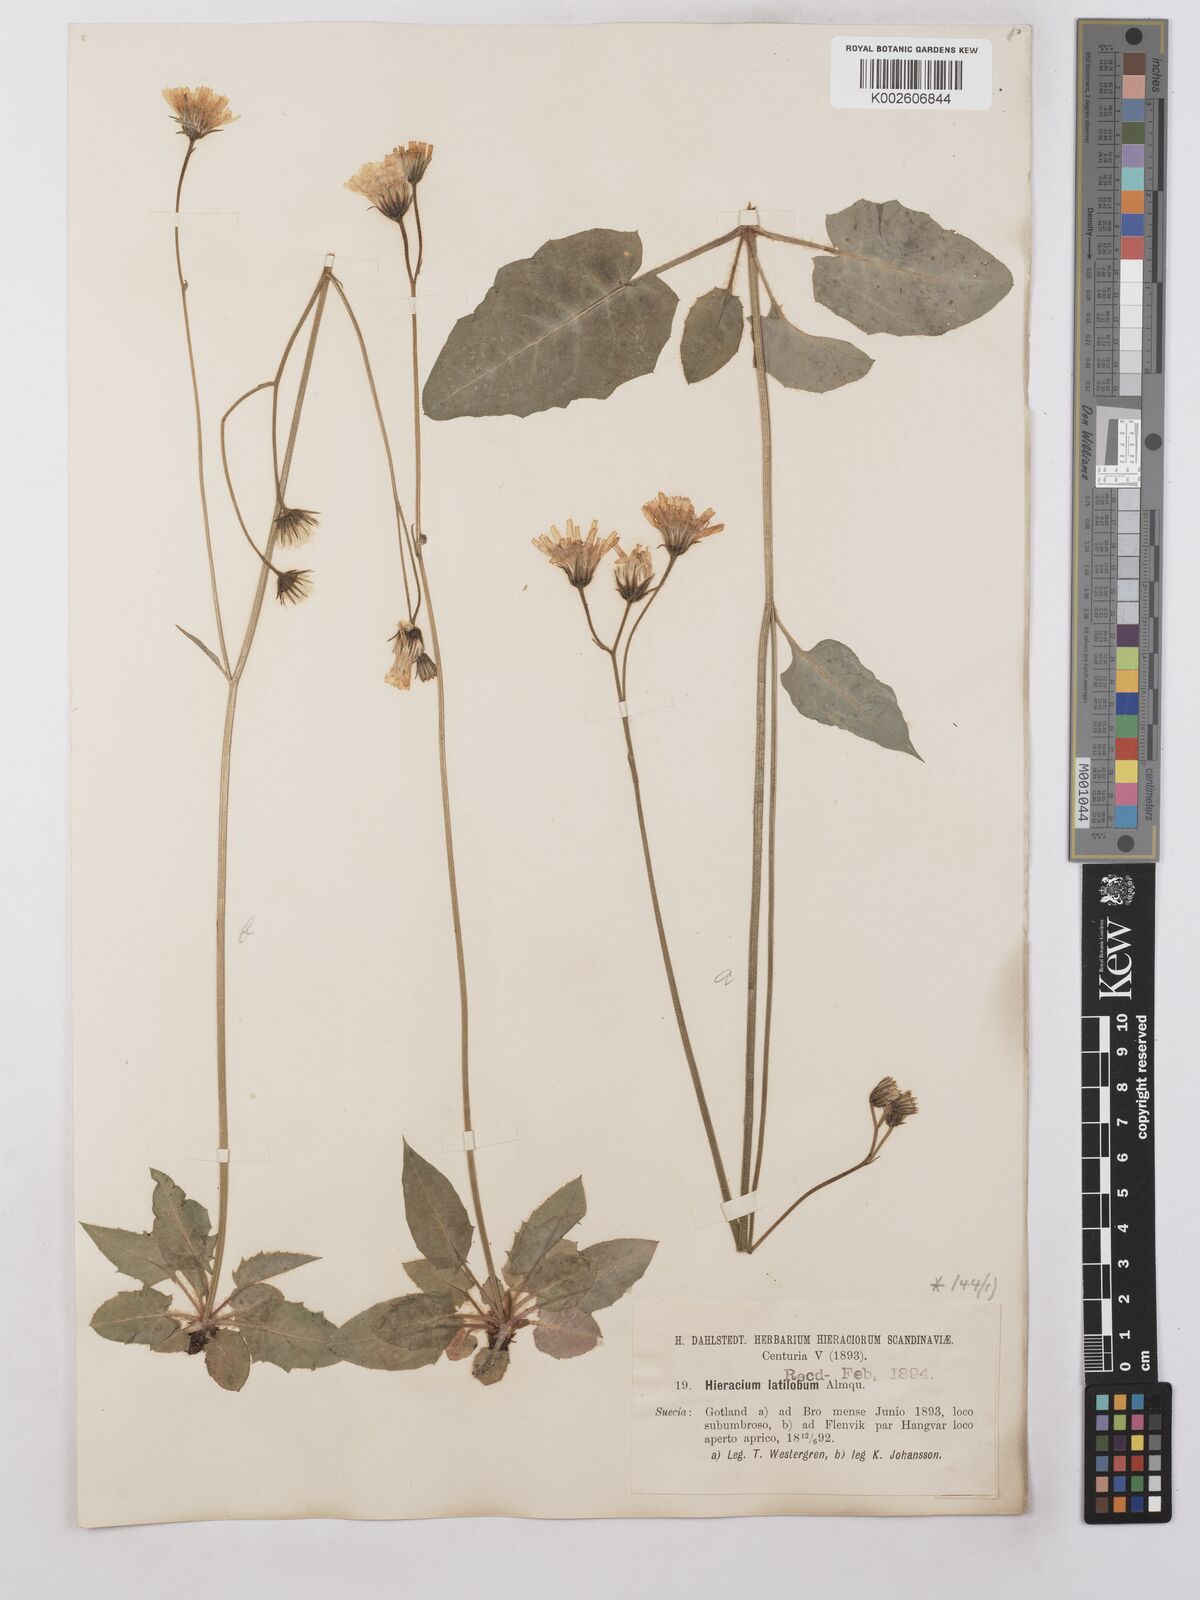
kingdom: Plantae
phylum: Tracheophyta
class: Magnoliopsida
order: Asterales
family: Asteraceae
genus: Hieracium
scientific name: Hieracium chlorellum
